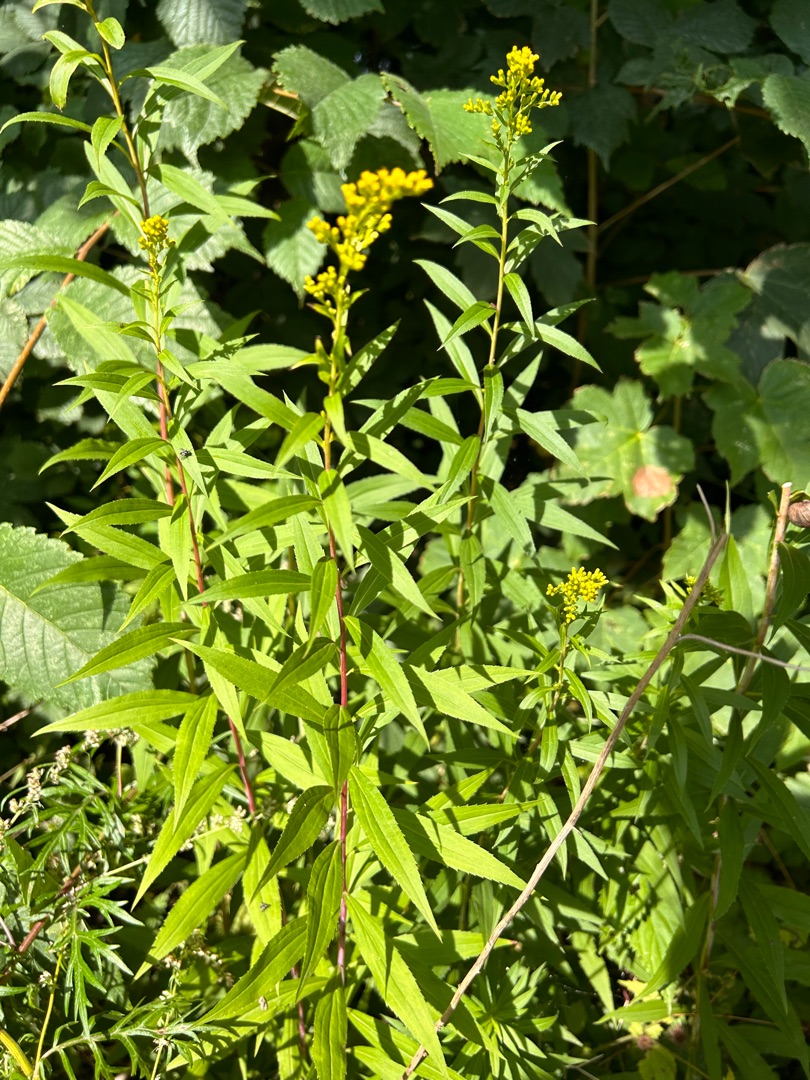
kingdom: Plantae
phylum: Tracheophyta
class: Magnoliopsida
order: Asterales
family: Asteraceae
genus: Solidago
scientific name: Solidago gigantea
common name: Sildig gyldenris
